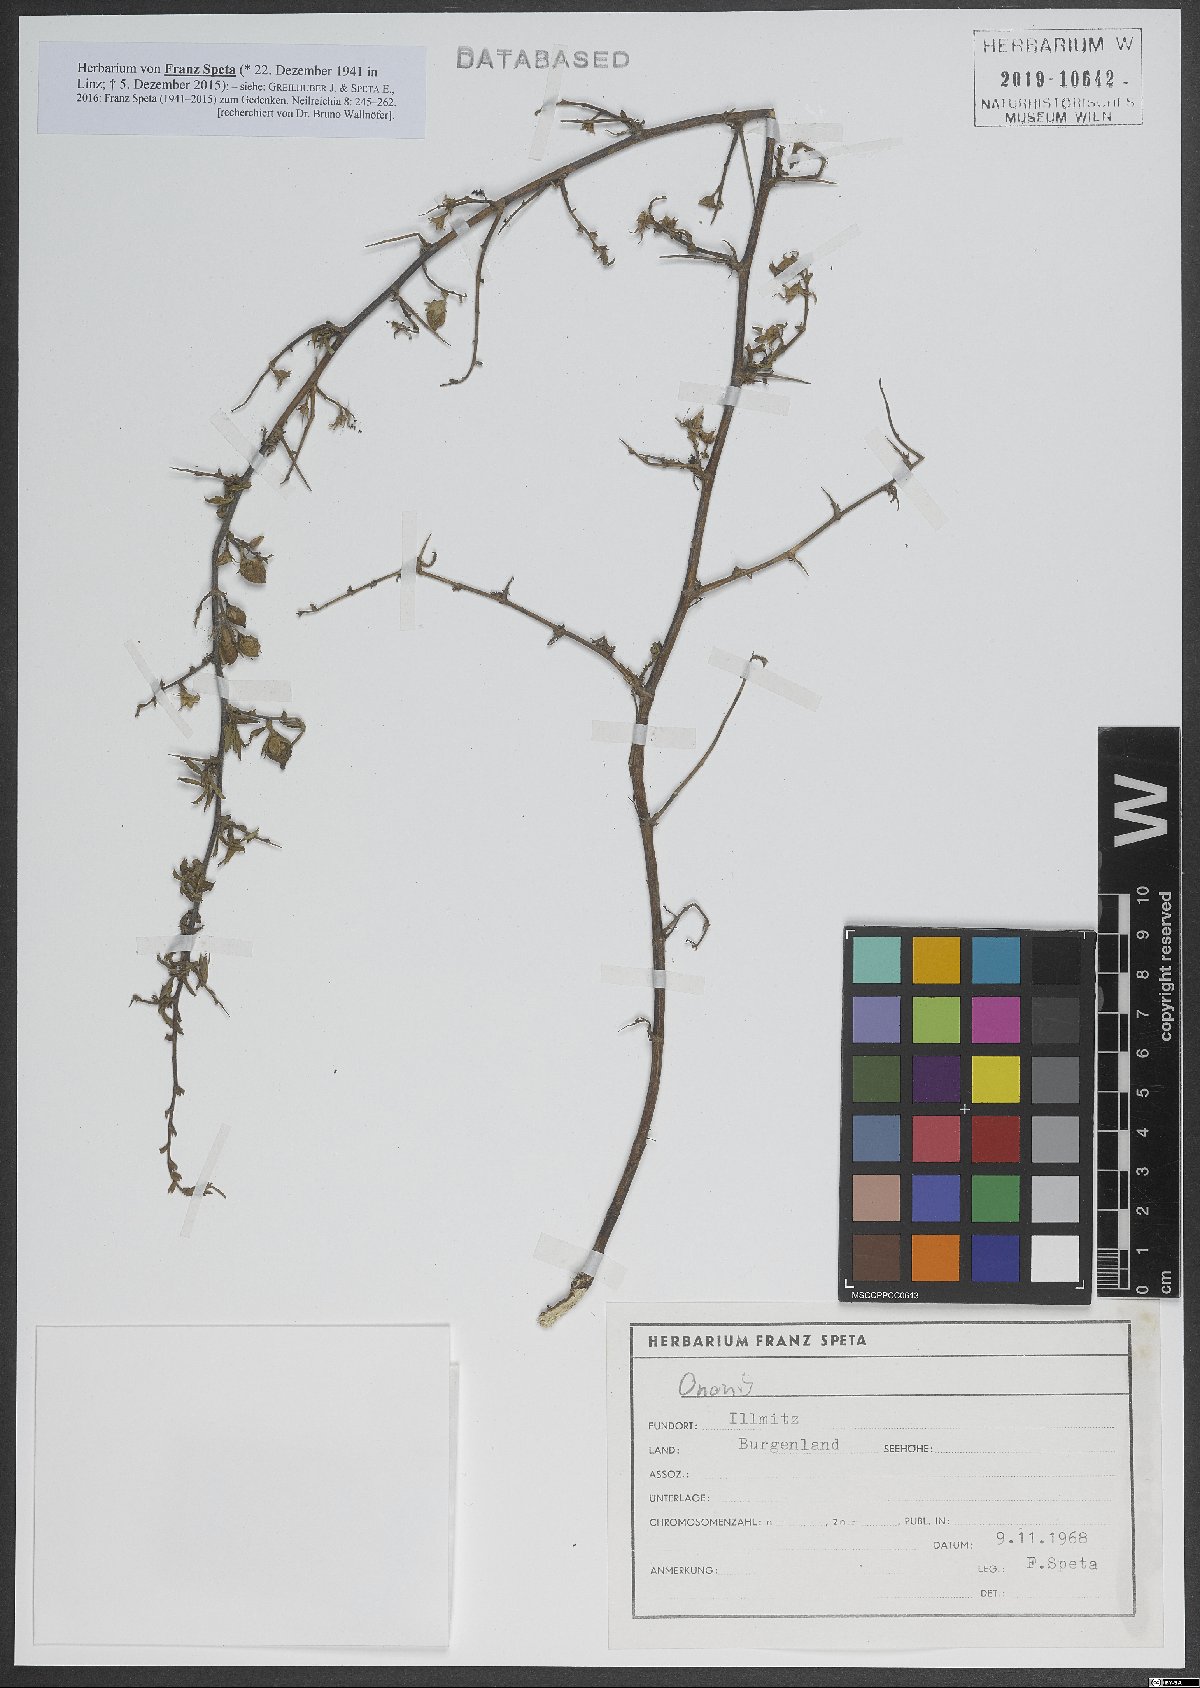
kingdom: Plantae
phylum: Tracheophyta
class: Magnoliopsida
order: Fabales
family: Fabaceae
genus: Ononis
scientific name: Ononis
